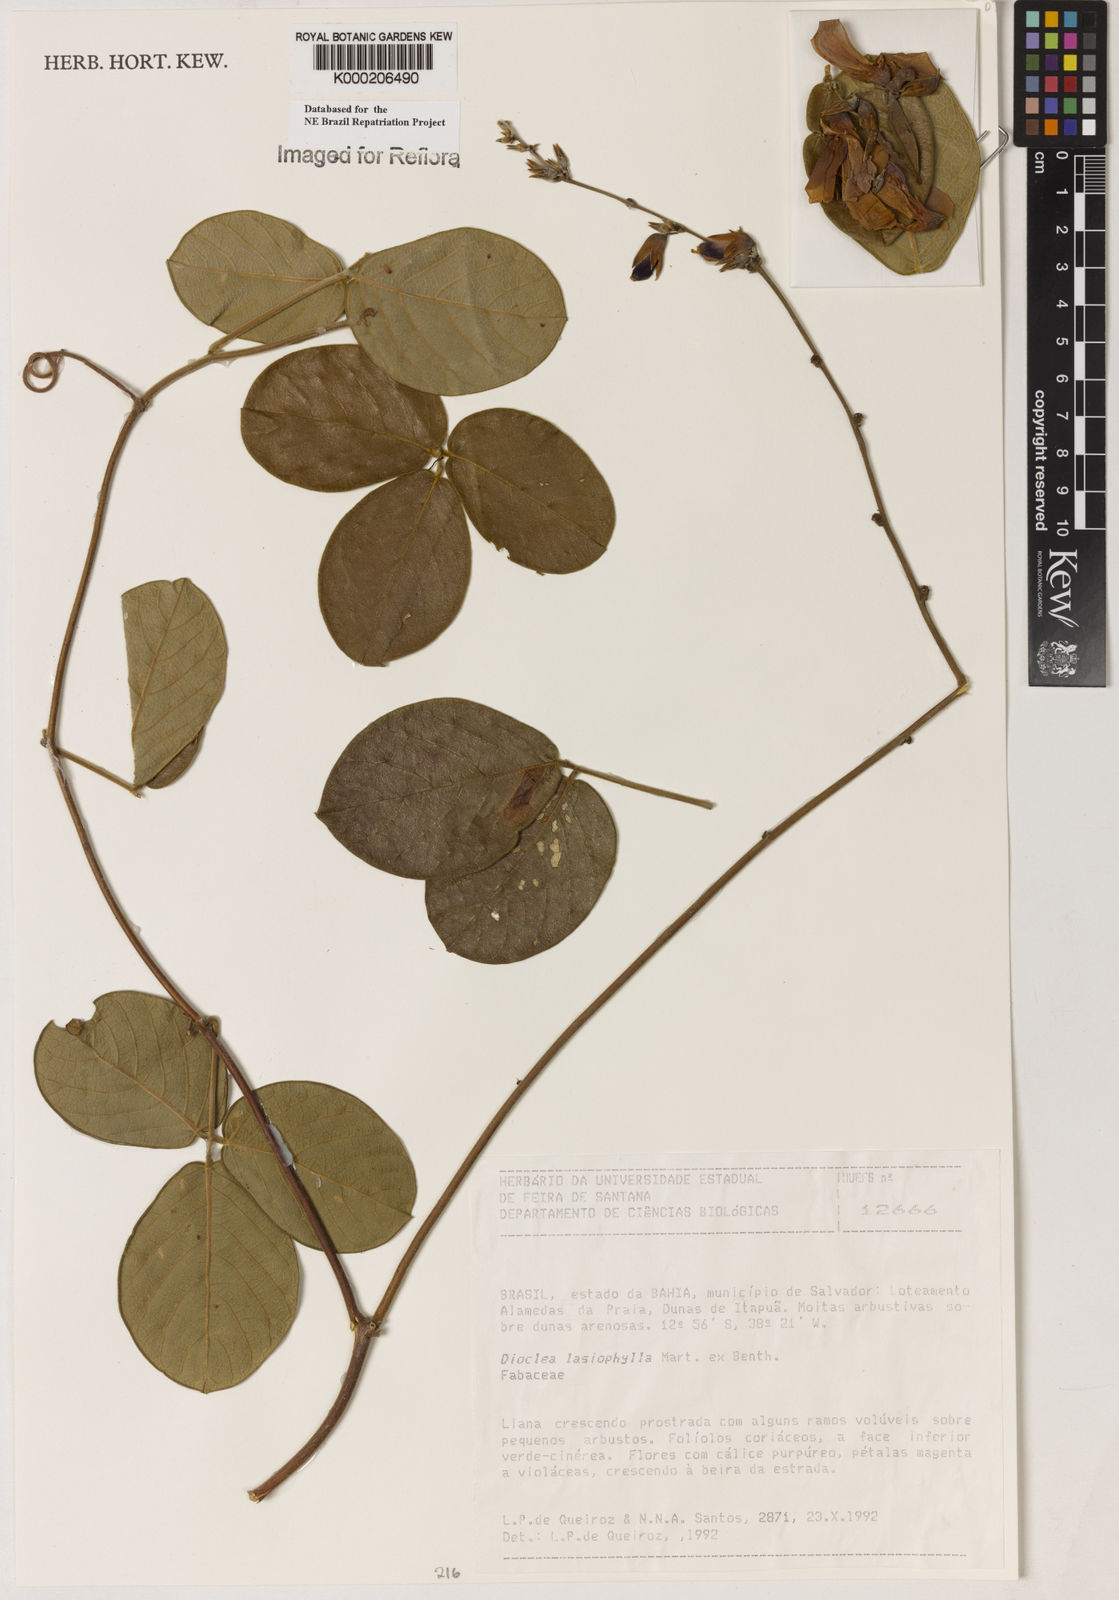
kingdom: Plantae
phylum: Tracheophyta
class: Magnoliopsida
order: Fabales
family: Fabaceae
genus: Dioclea
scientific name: Dioclea lasiophylla
